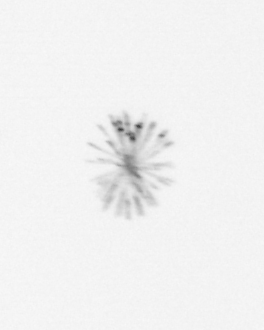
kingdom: Chromista
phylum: Ochrophyta
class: Bacillariophyceae
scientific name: Bacillariophyceae
